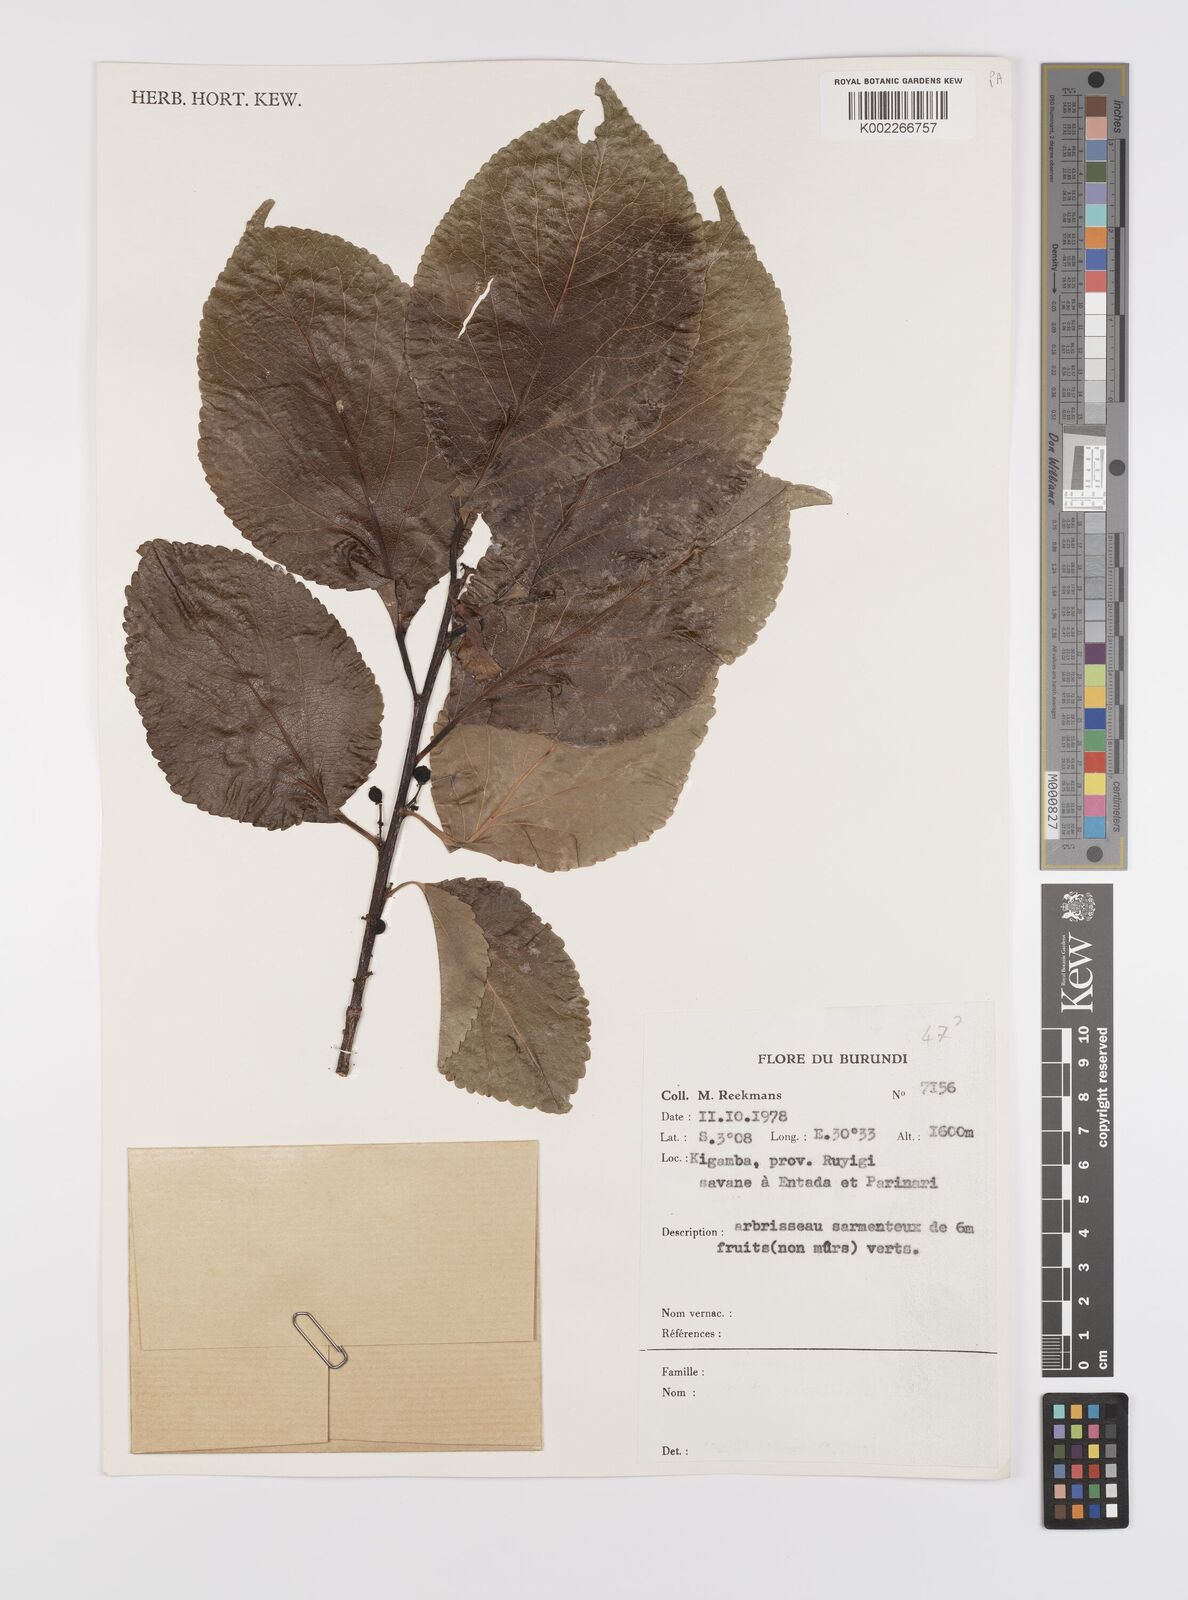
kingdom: Plantae
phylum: Tracheophyta
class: Magnoliopsida
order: Celastrales
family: Celastraceae
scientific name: Celastraceae
